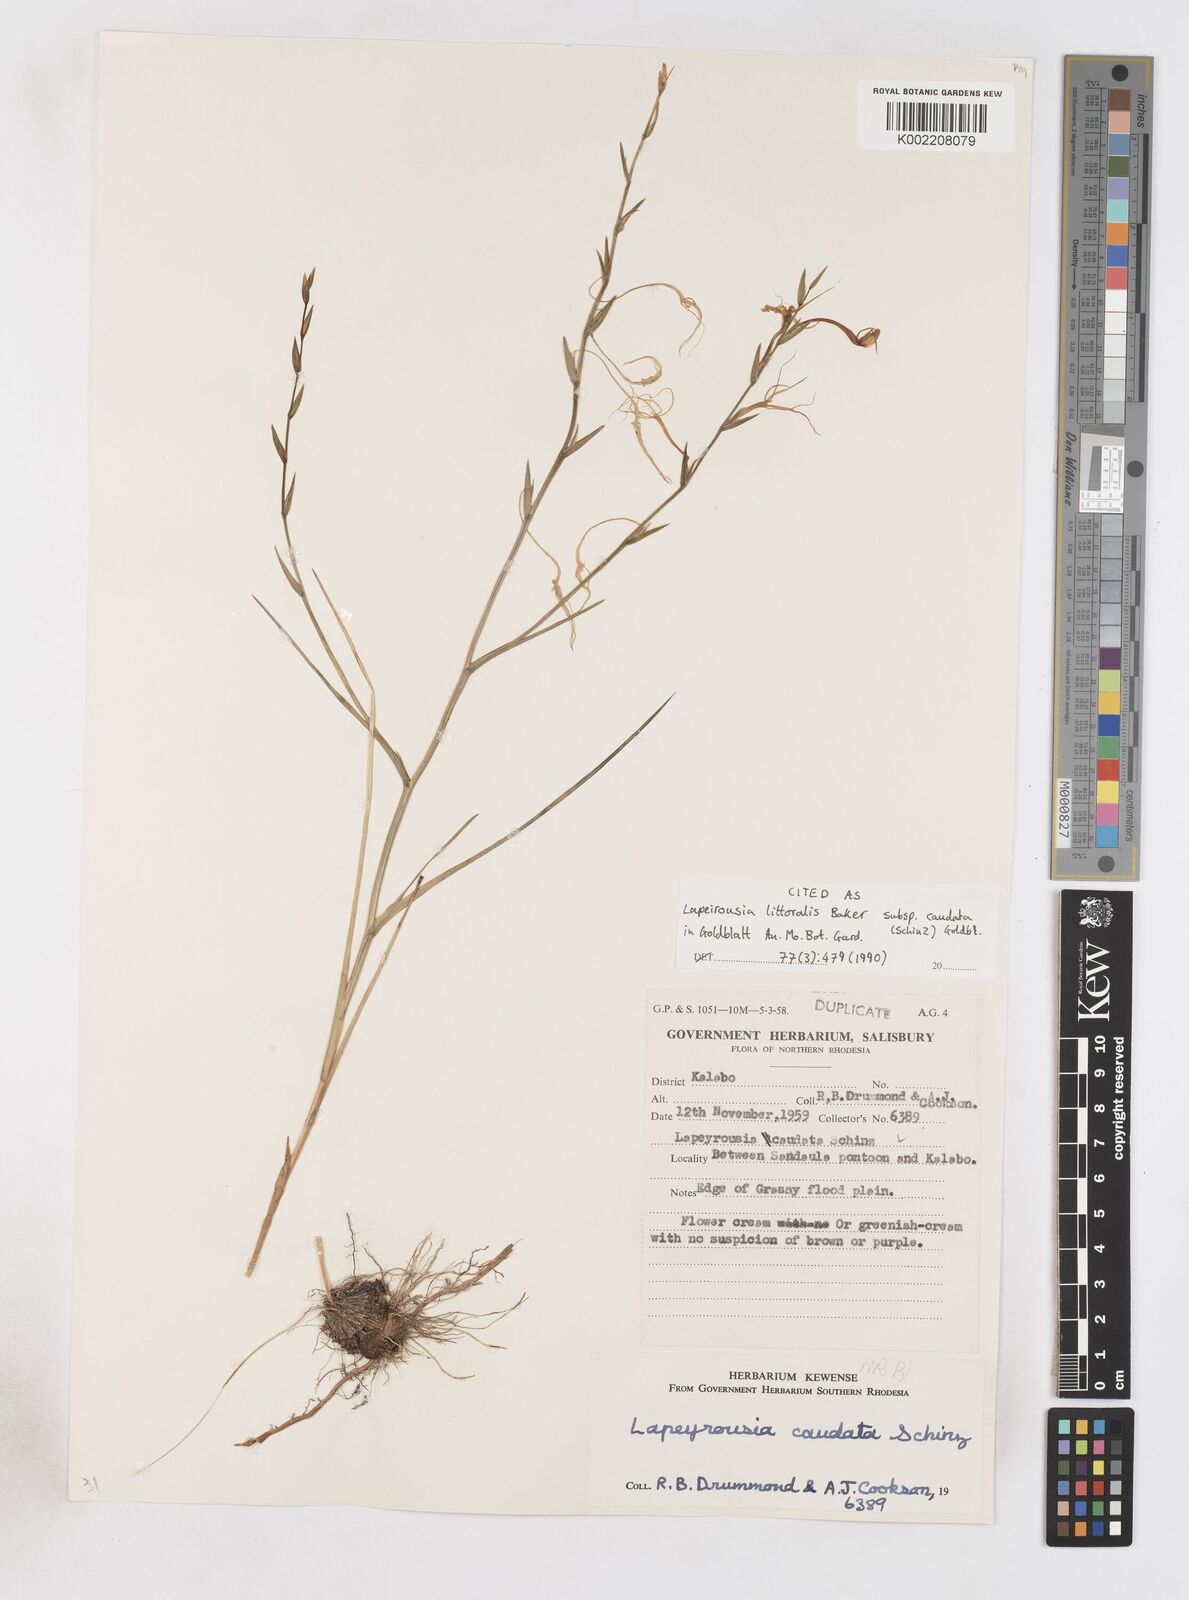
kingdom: Plantae
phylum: Tracheophyta
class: Liliopsida
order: Asparagales
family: Iridaceae
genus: Lapeirousia
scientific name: Lapeirousia caudata
